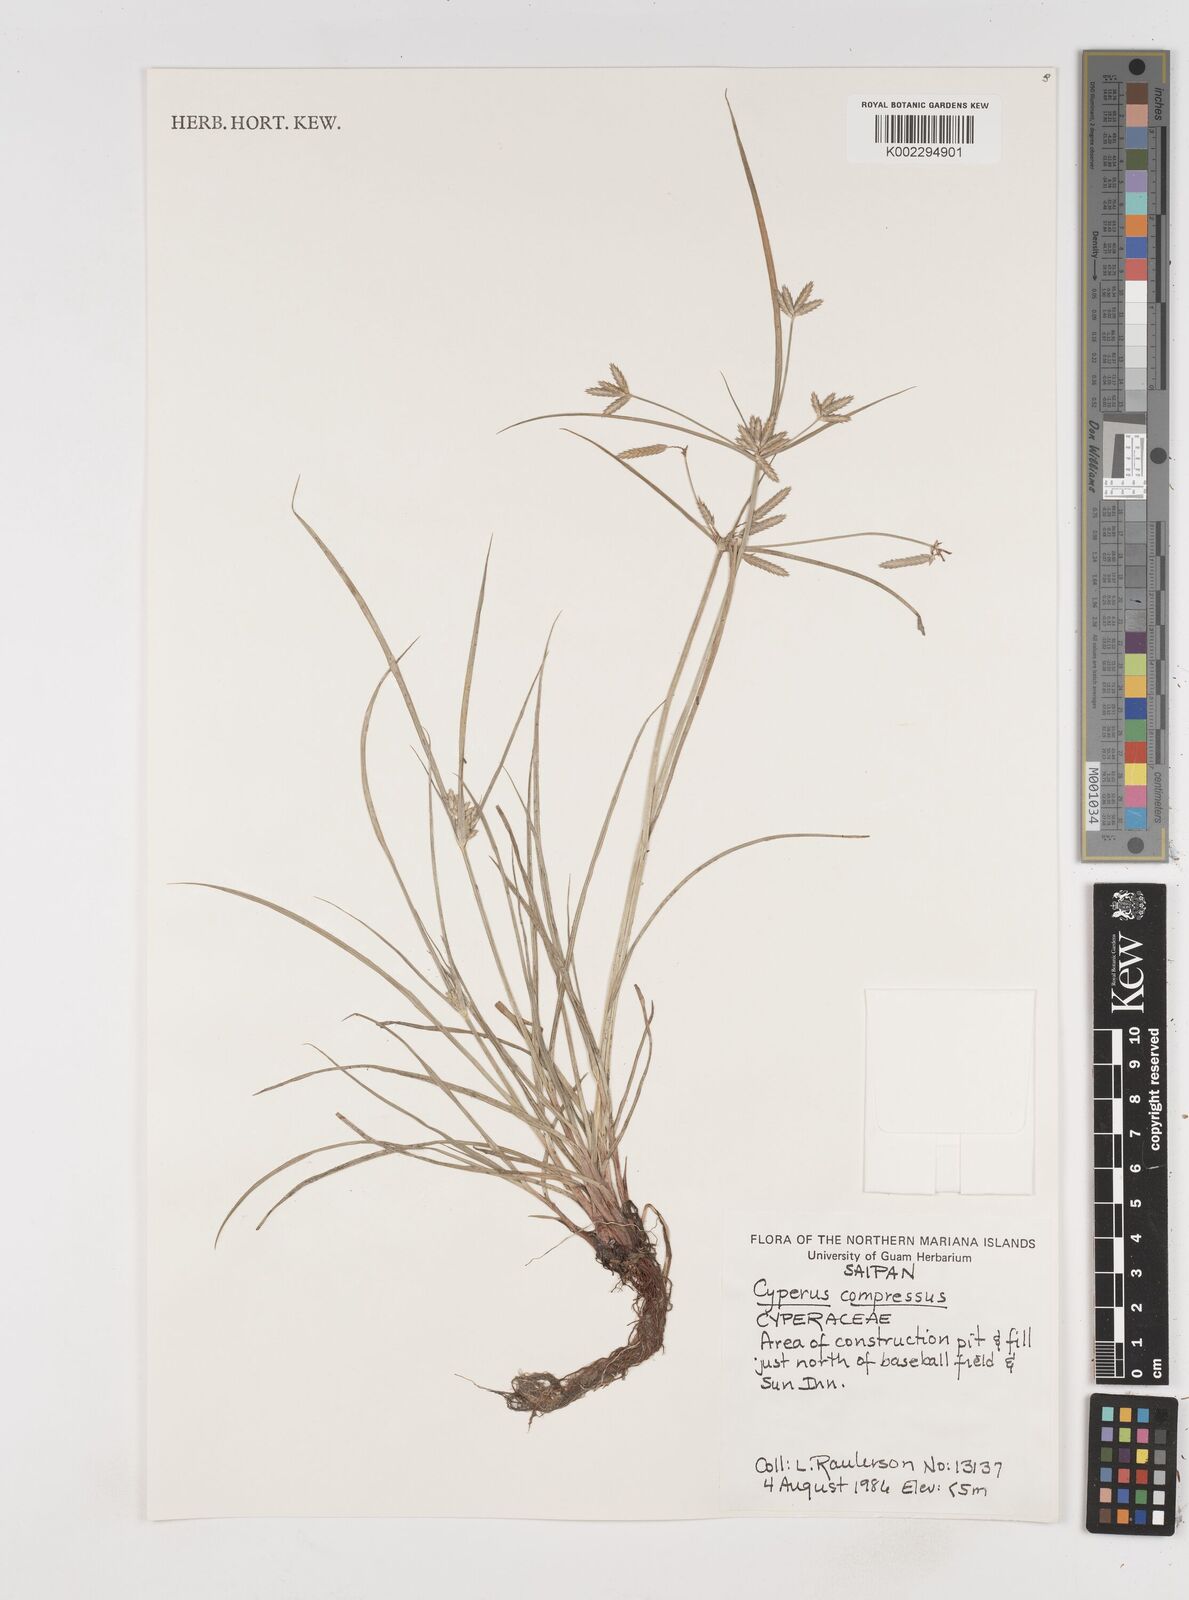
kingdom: Plantae
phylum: Tracheophyta
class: Liliopsida
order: Poales
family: Cyperaceae
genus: Cyperus
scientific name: Cyperus compressus
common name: Poorland flatsedge
